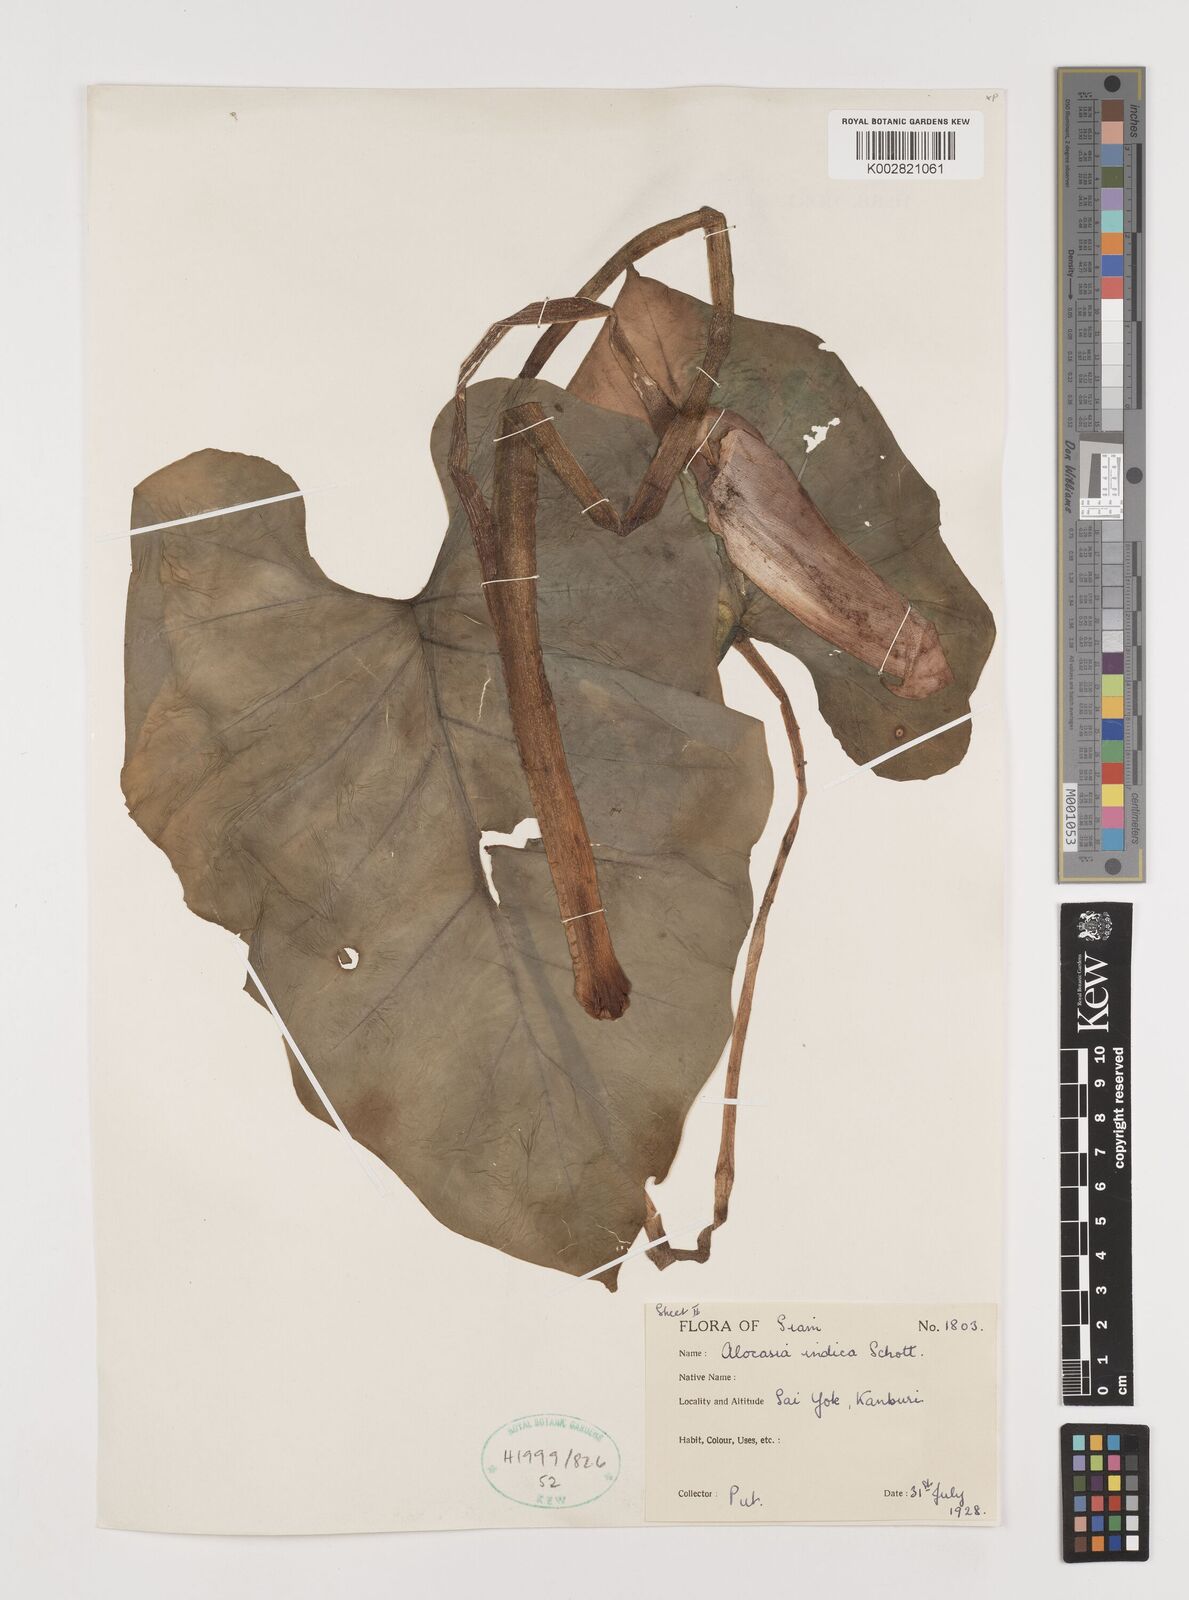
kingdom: Plantae
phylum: Tracheophyta
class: Liliopsida
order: Alismatales
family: Araceae
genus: Alocasia
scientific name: Alocasia macrorrhizos
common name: Giant taro
